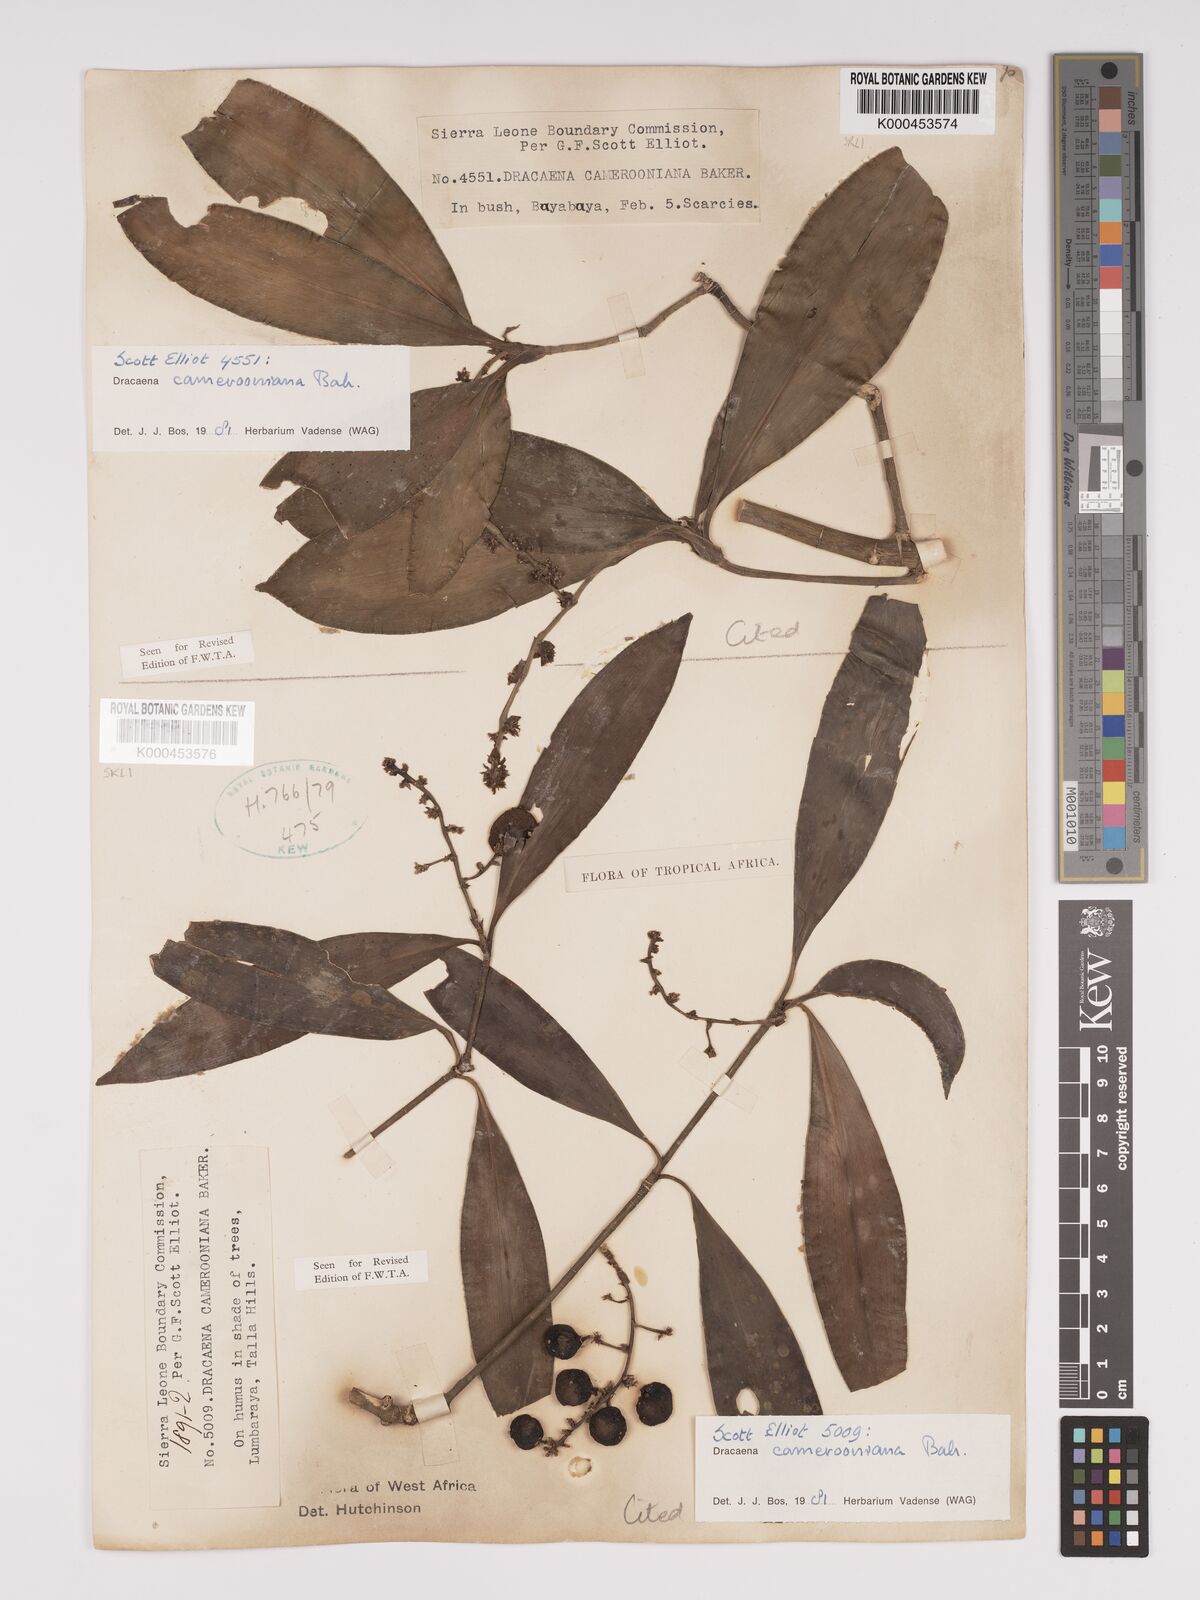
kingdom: Plantae
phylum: Tracheophyta
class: Liliopsida
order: Asparagales
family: Asparagaceae
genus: Dracaena
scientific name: Dracaena camerooniana
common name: Dragon tree
